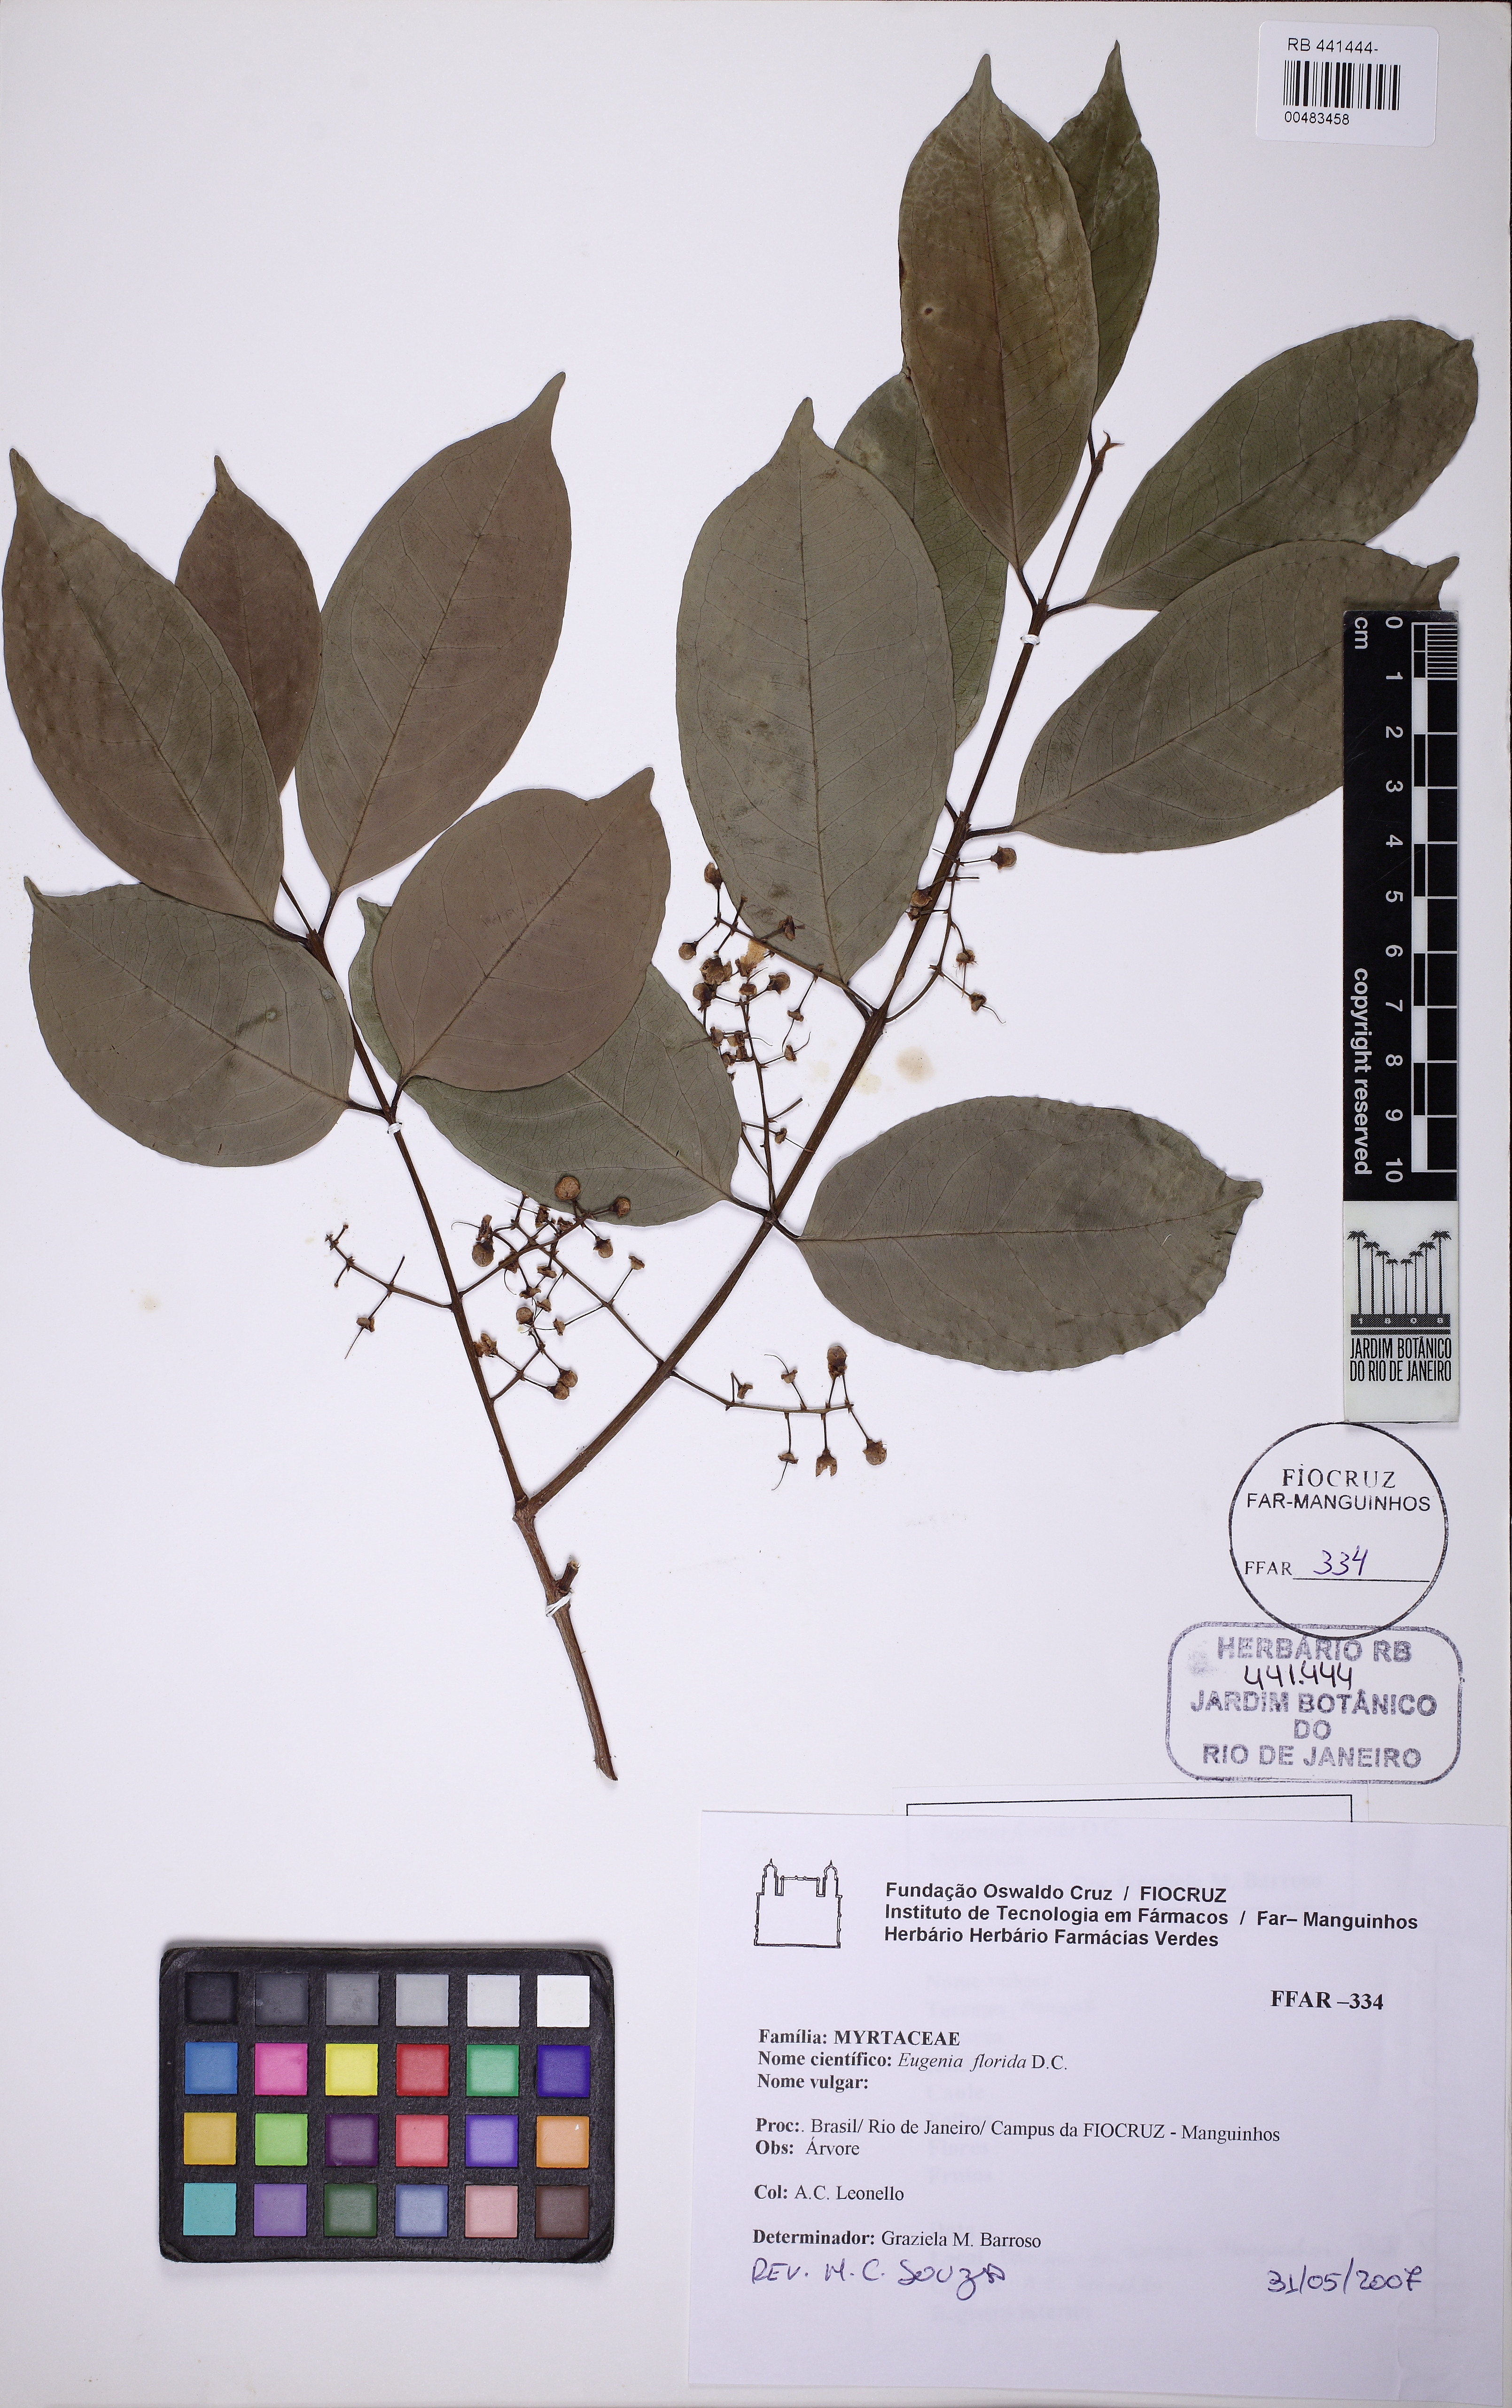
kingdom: Plantae
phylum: Tracheophyta
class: Magnoliopsida
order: Myrtales
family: Myrtaceae
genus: Eugenia
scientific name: Eugenia florida
